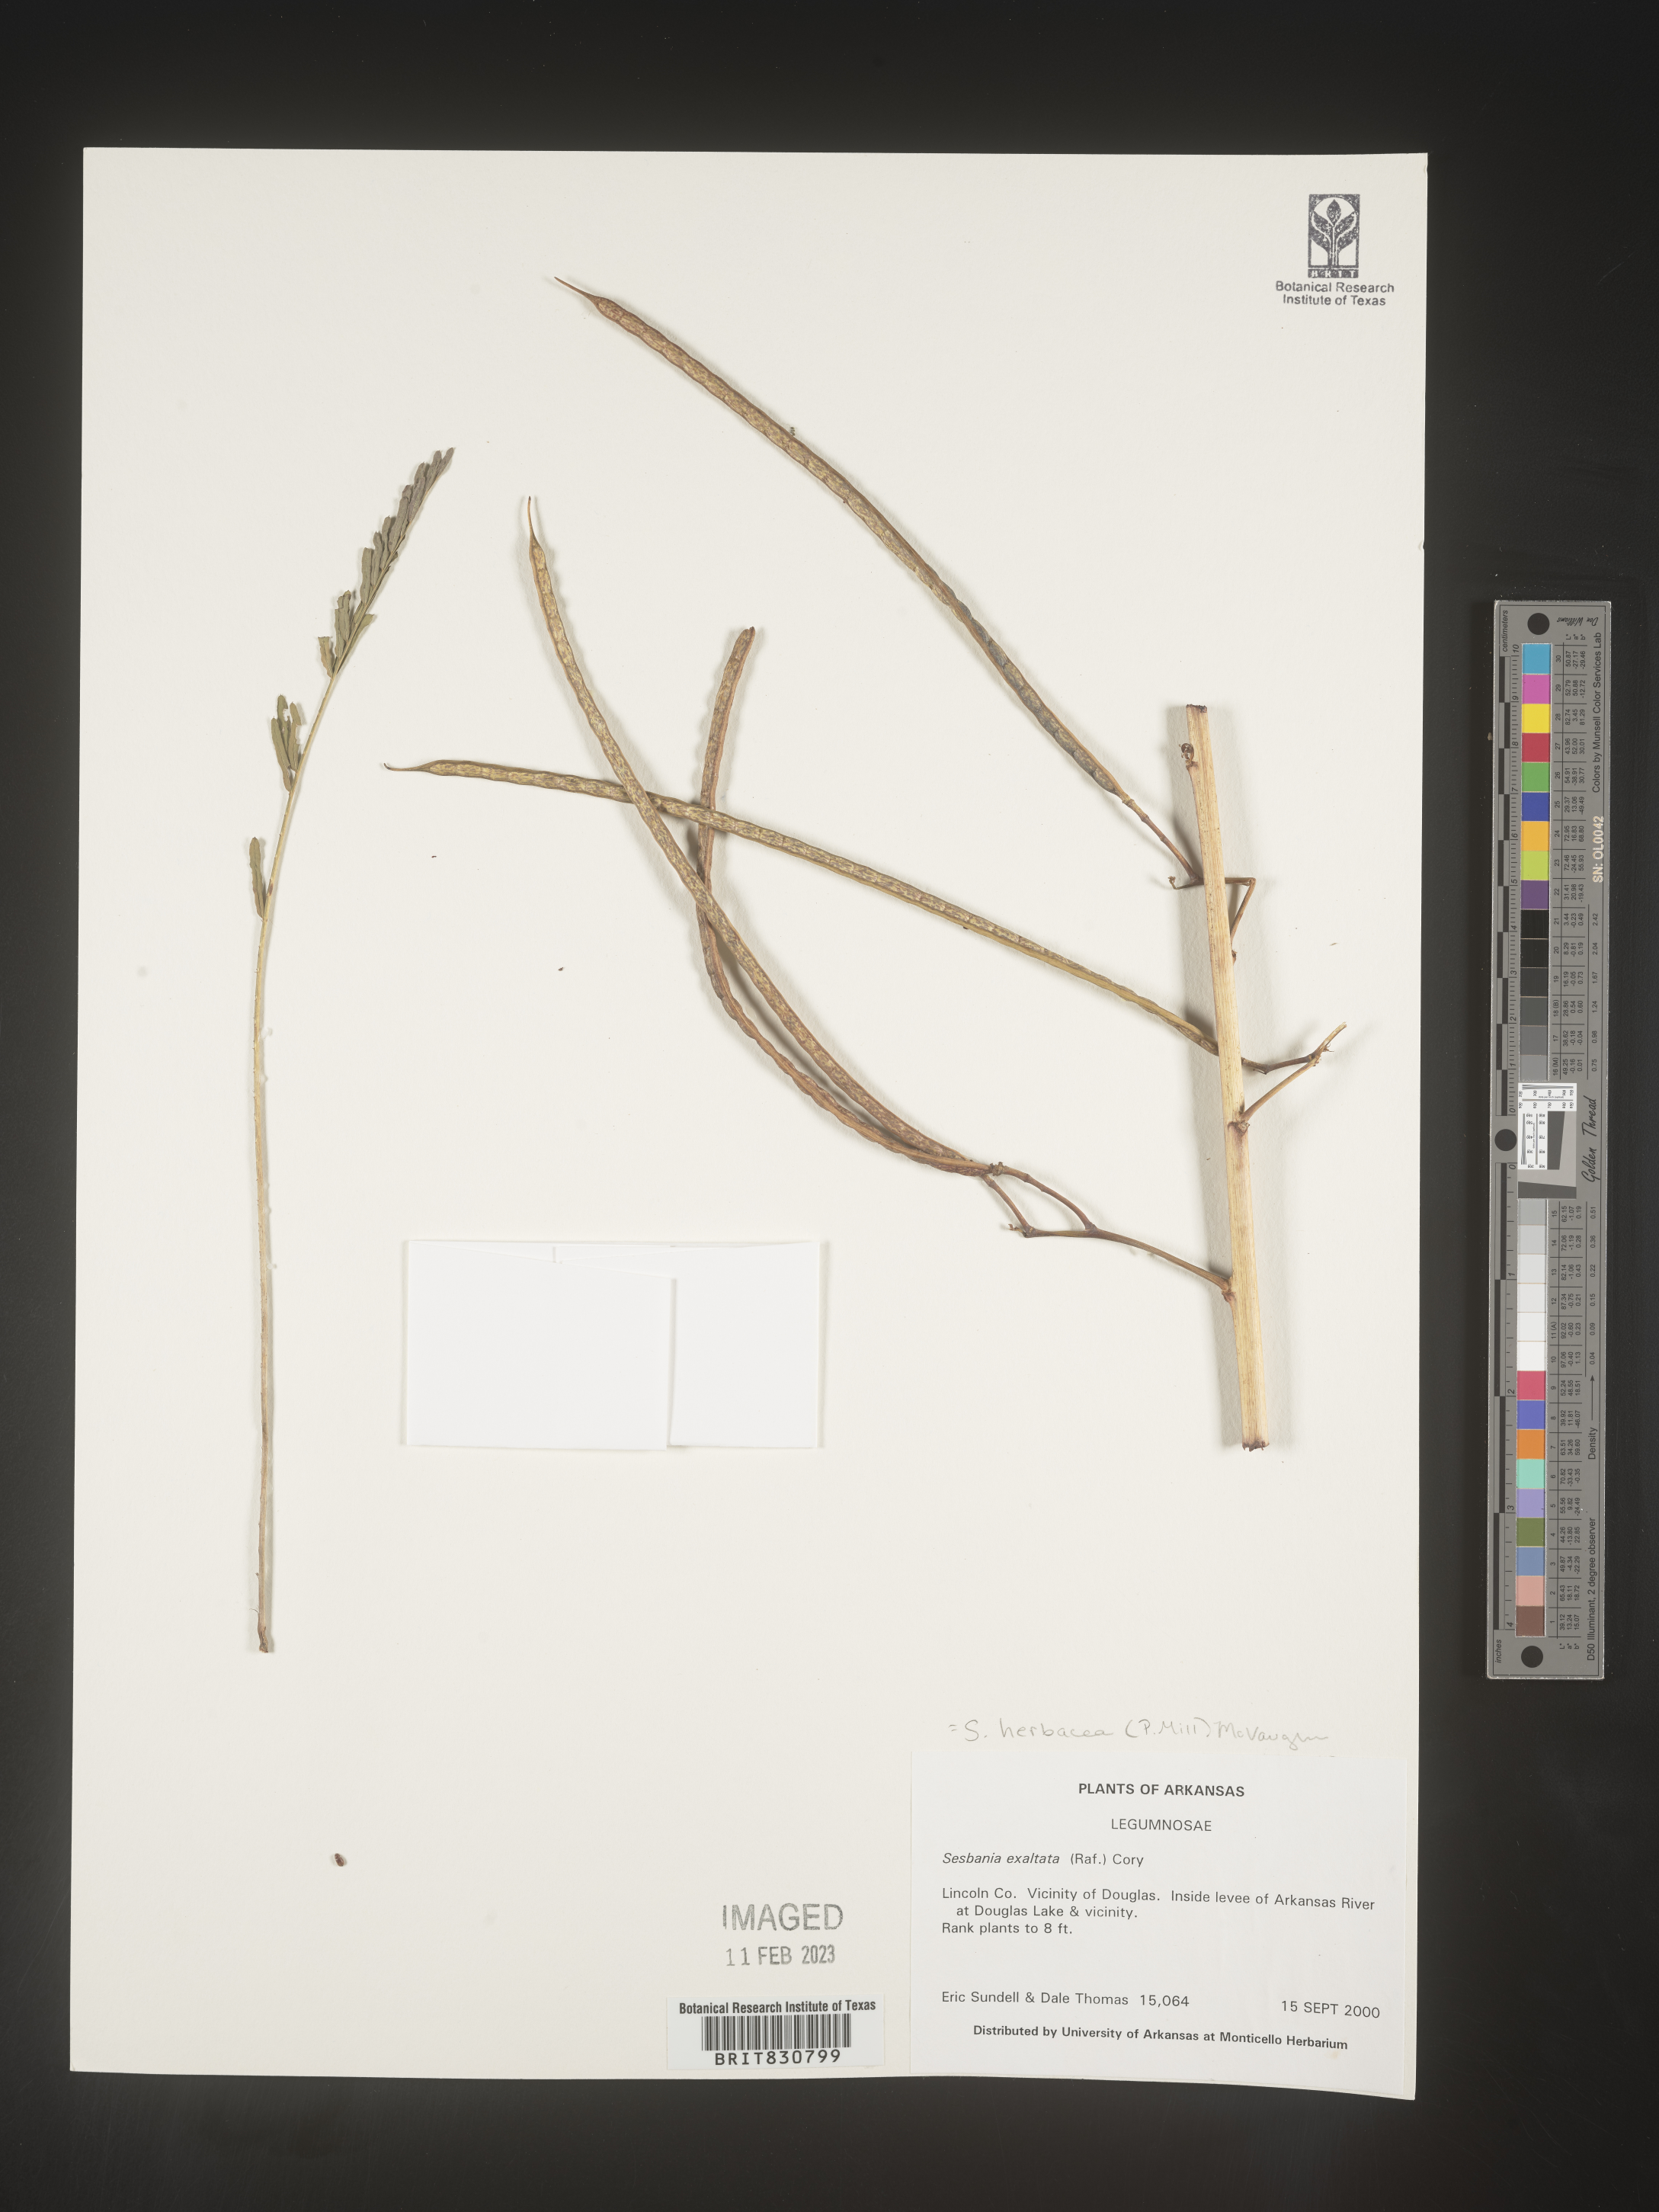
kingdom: Plantae
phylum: Tracheophyta
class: Magnoliopsida
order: Fabales
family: Fabaceae
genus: Sesbania
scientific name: Sesbania herbacea
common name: Bigpod sesbania
